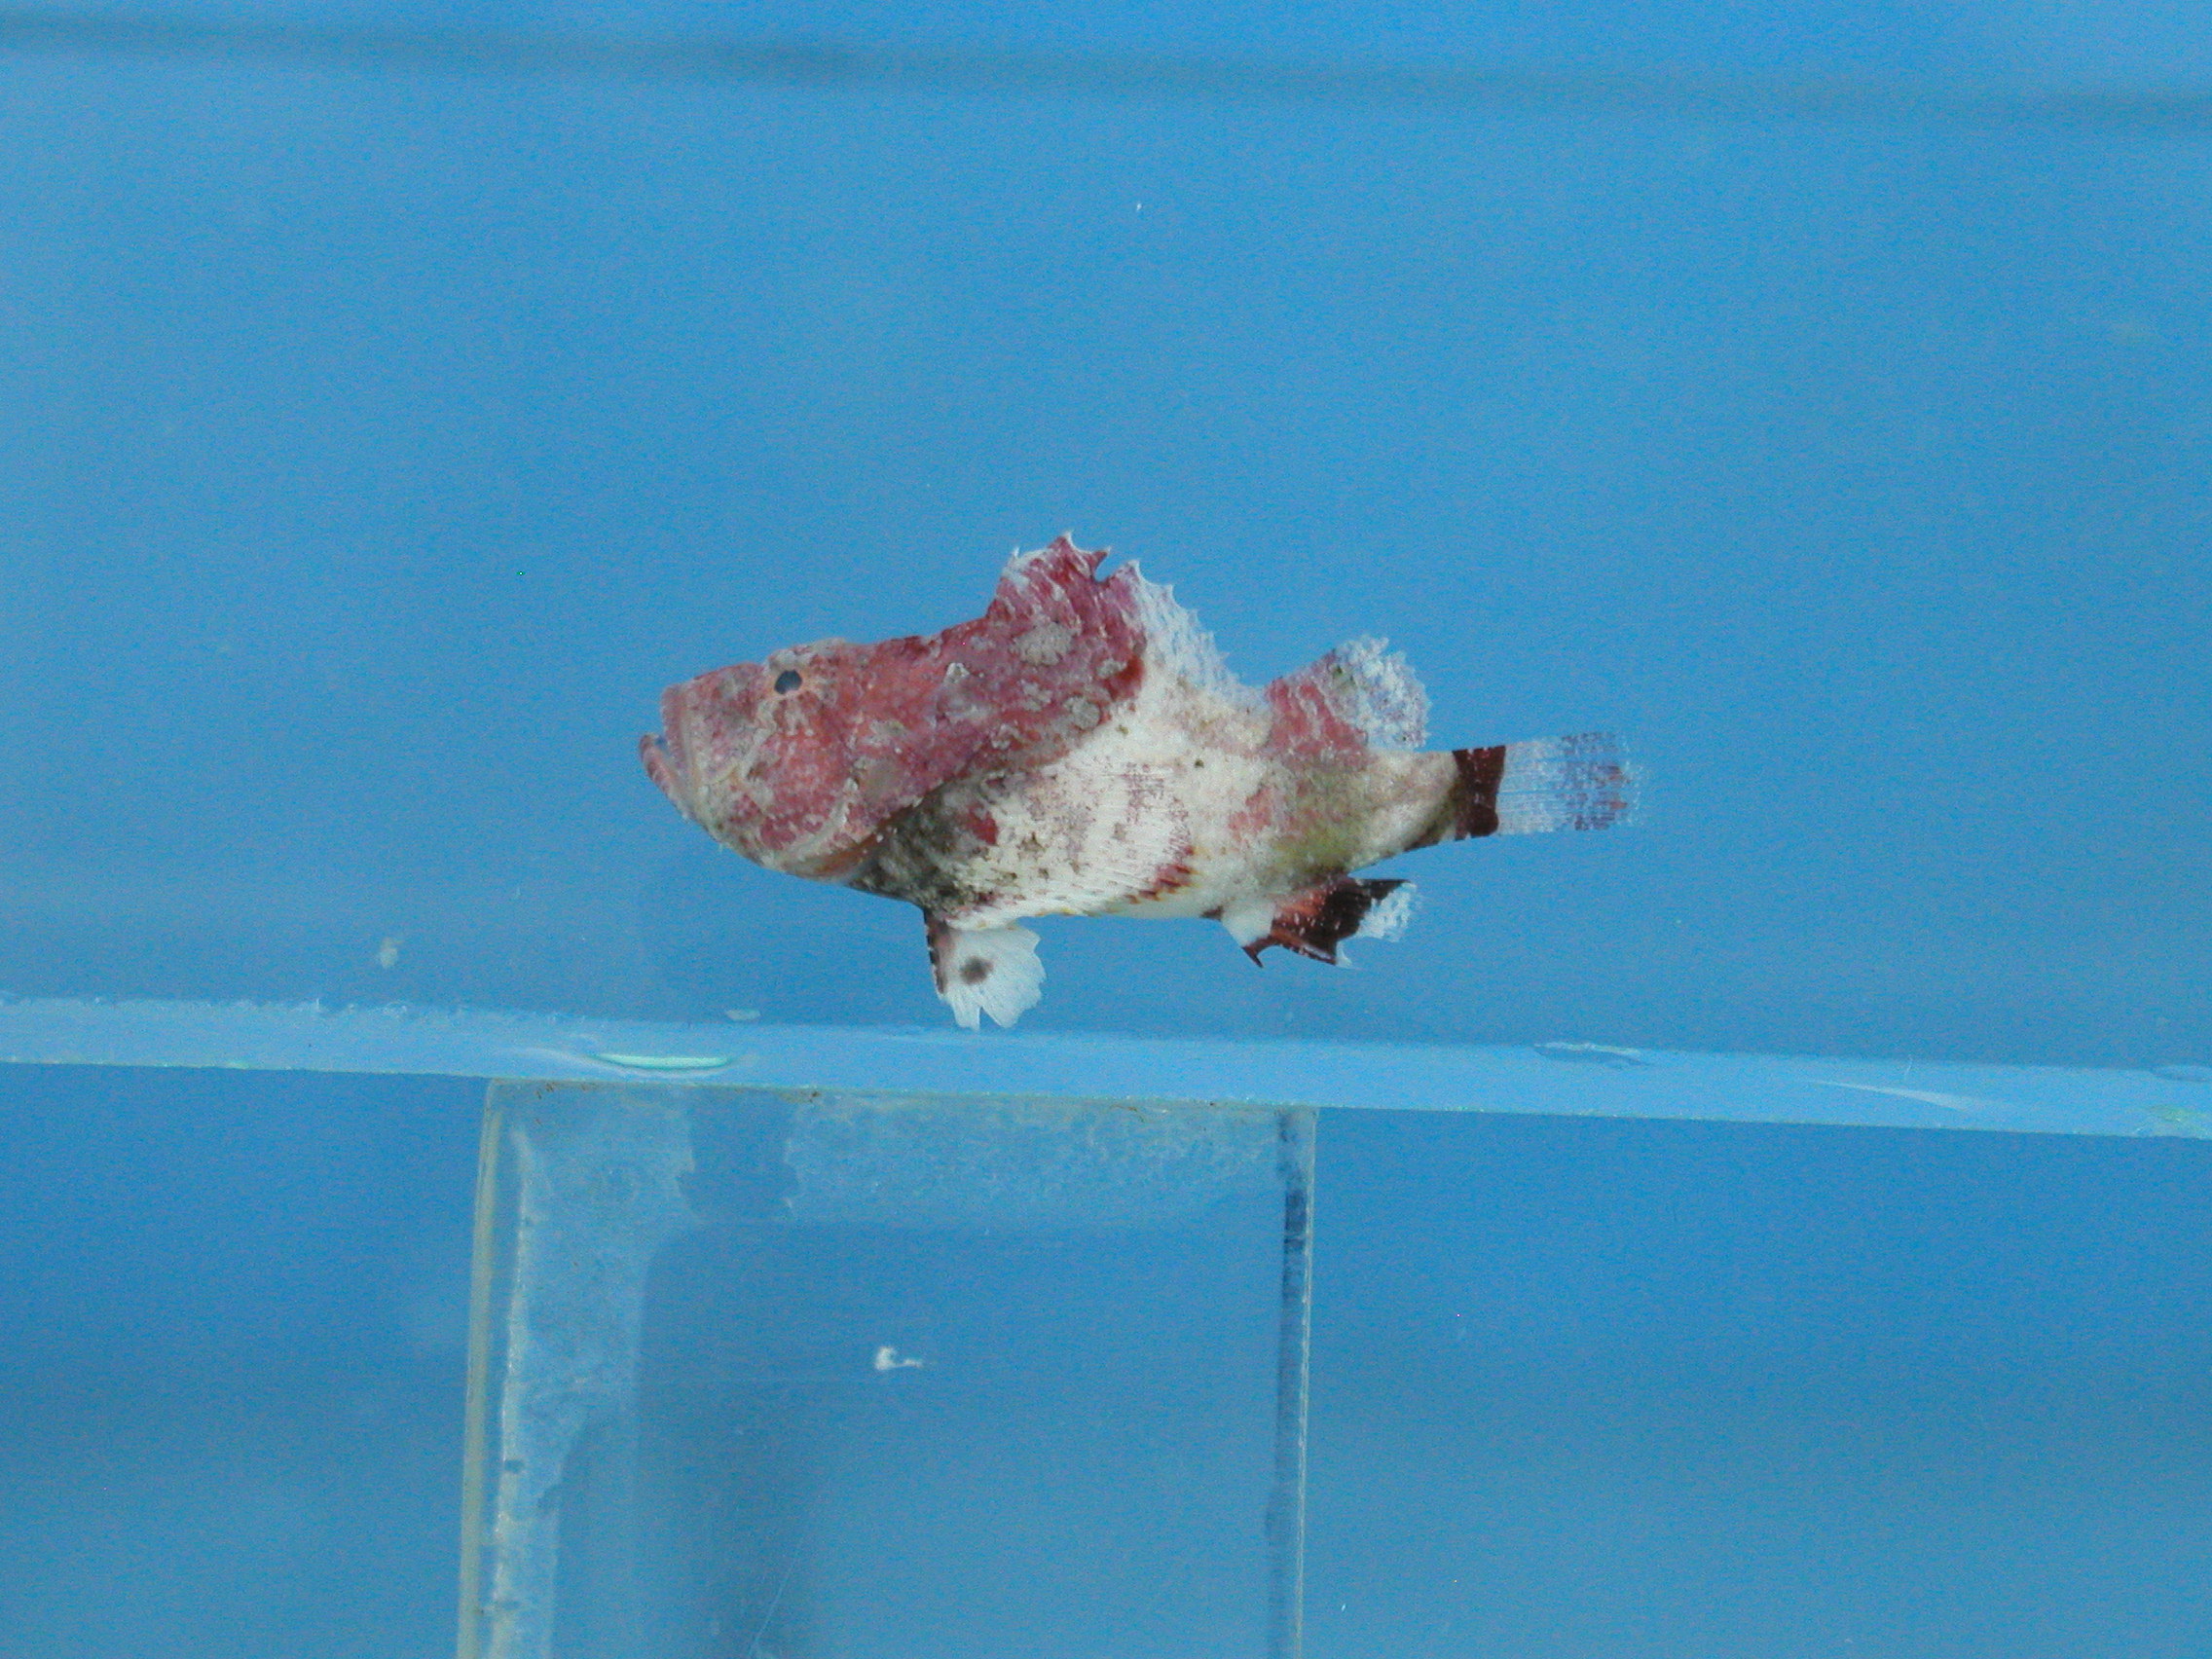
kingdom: Animalia
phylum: Chordata
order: Scorpaeniformes
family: Scorpaenidae
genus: Scorpaenopsis
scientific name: Scorpaenopsis longispina
